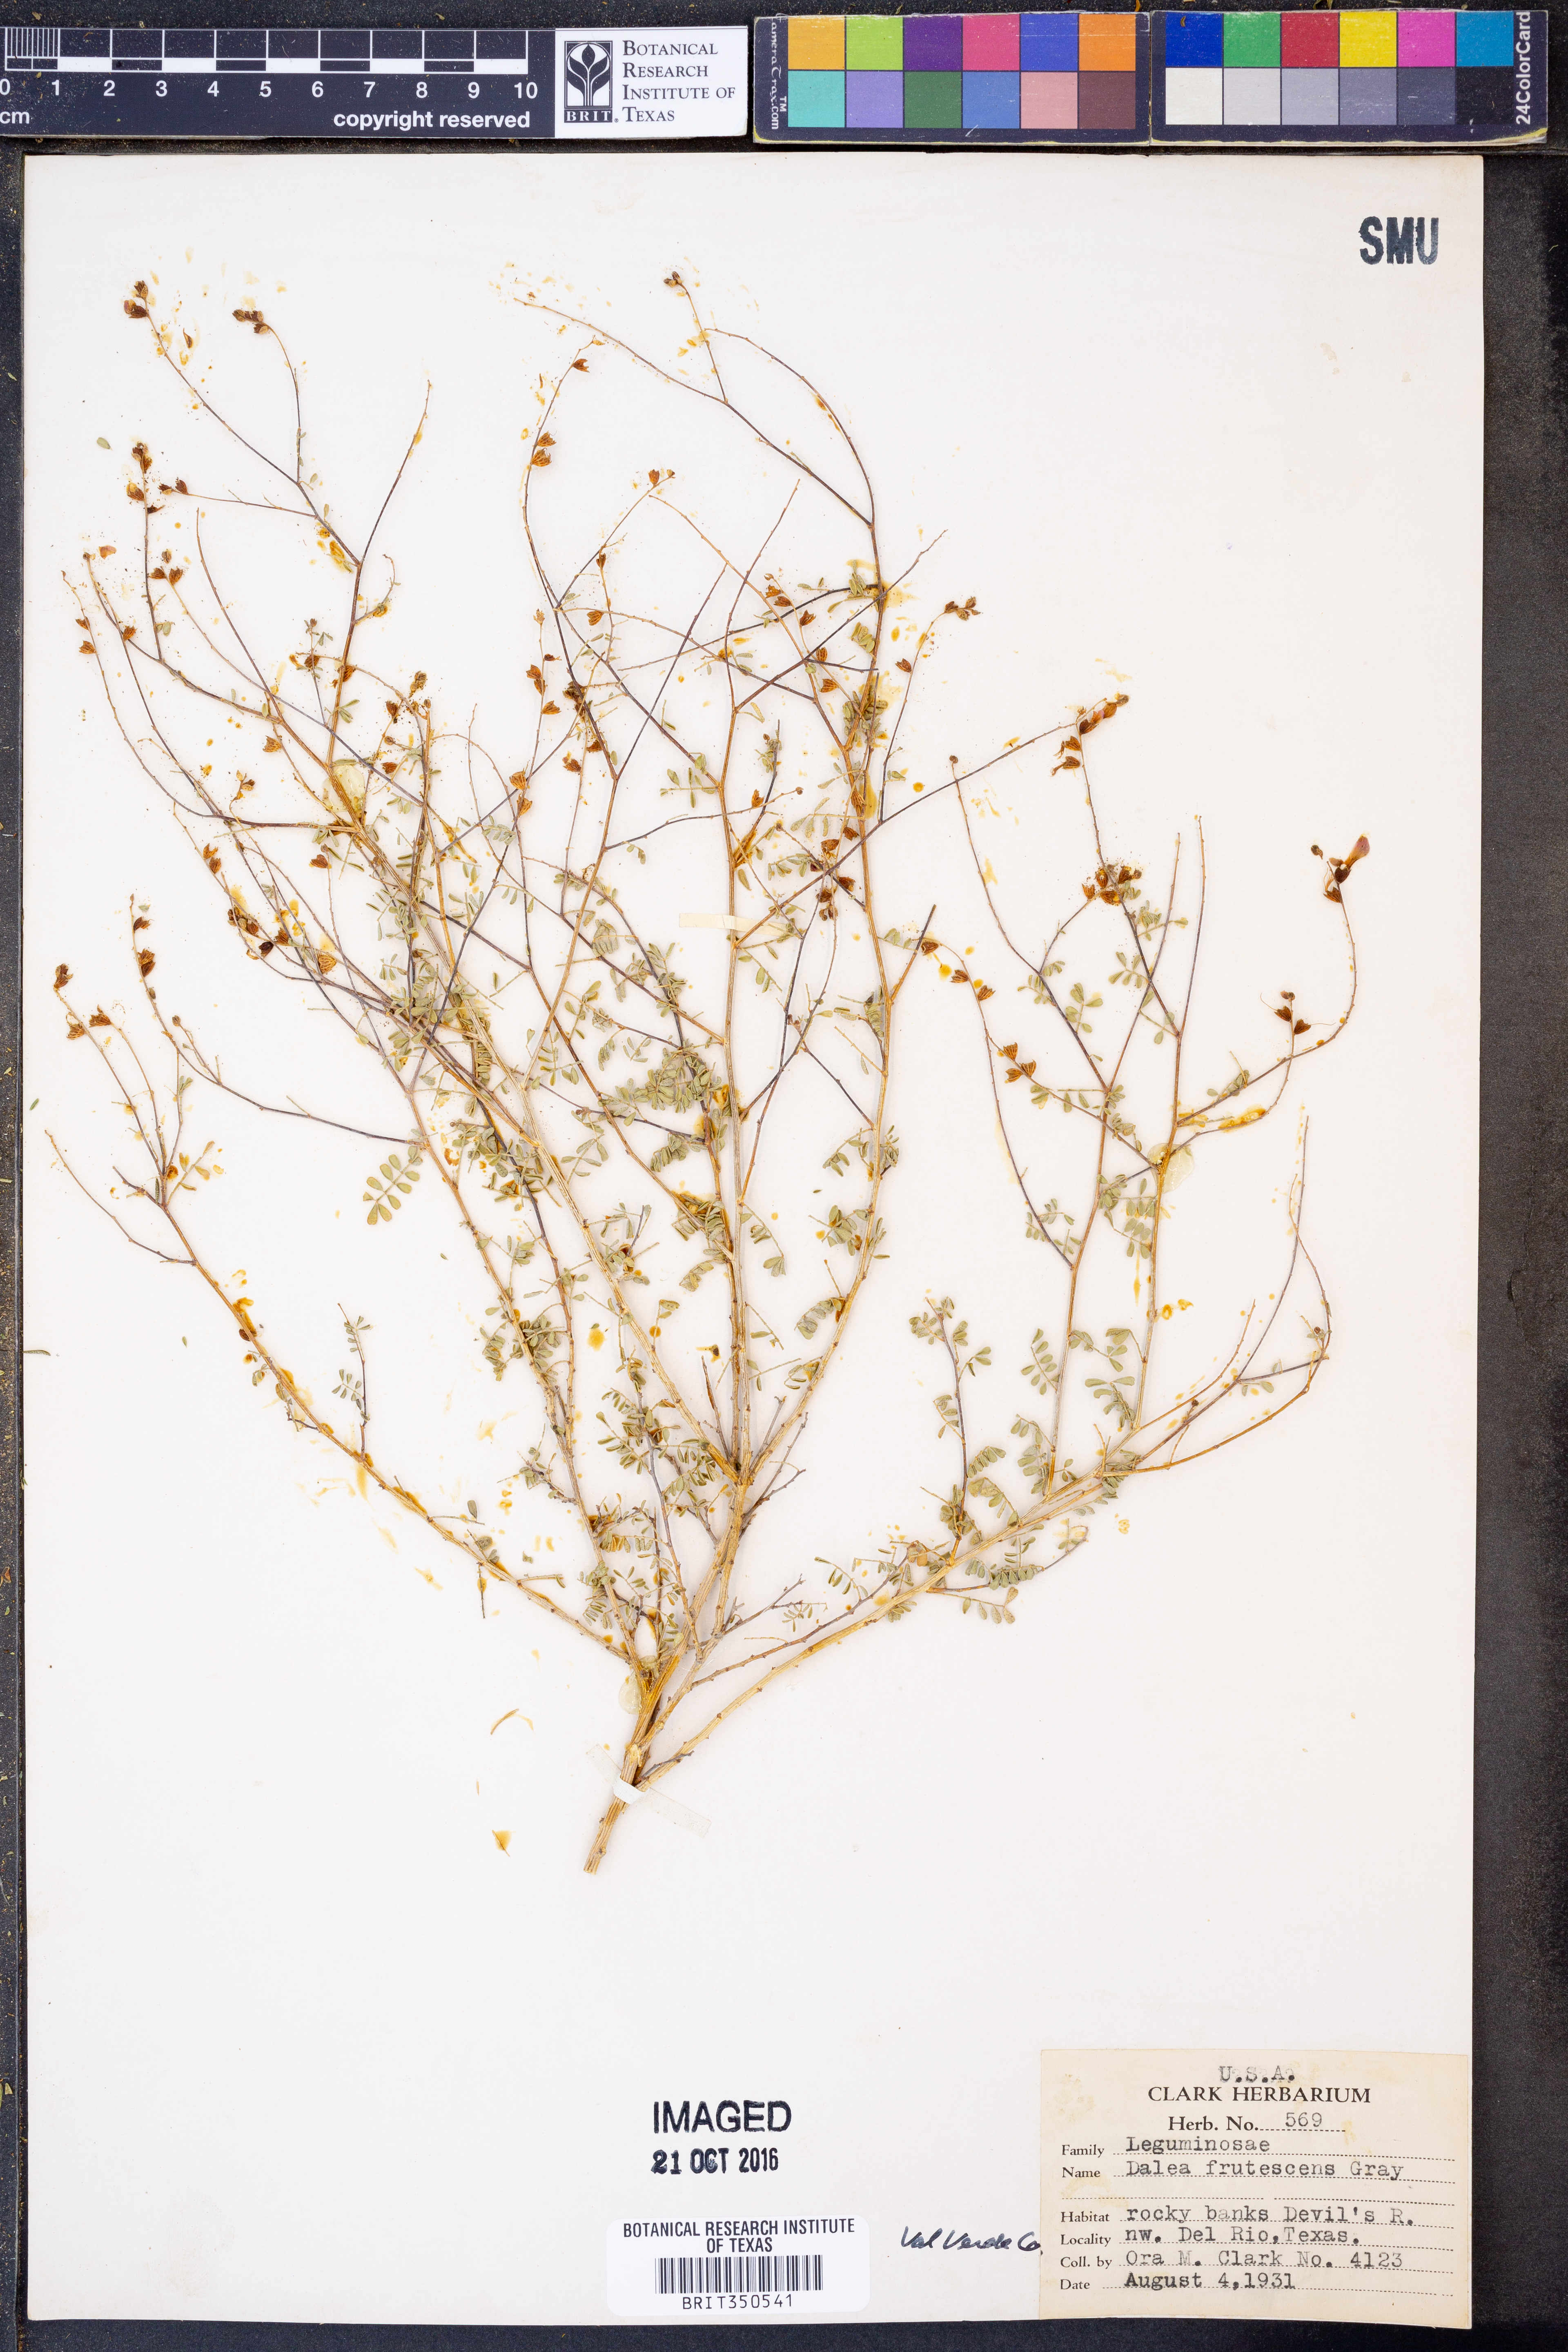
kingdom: Plantae
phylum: Tracheophyta
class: Magnoliopsida
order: Fabales
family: Fabaceae
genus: Dalea
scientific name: Dalea frutescens
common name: Black dalea
